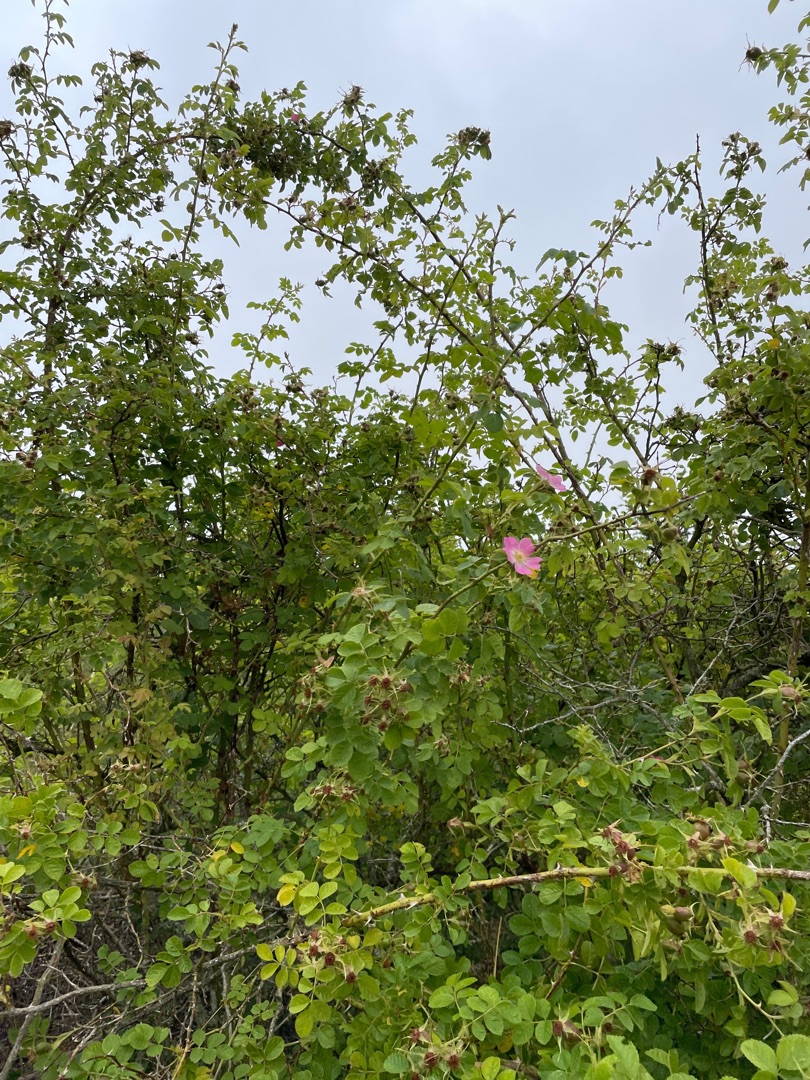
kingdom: Plantae
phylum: Tracheophyta
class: Magnoliopsida
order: Rosales
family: Rosaceae
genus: Rosa
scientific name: Rosa rubiginosa
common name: Æble-rose
